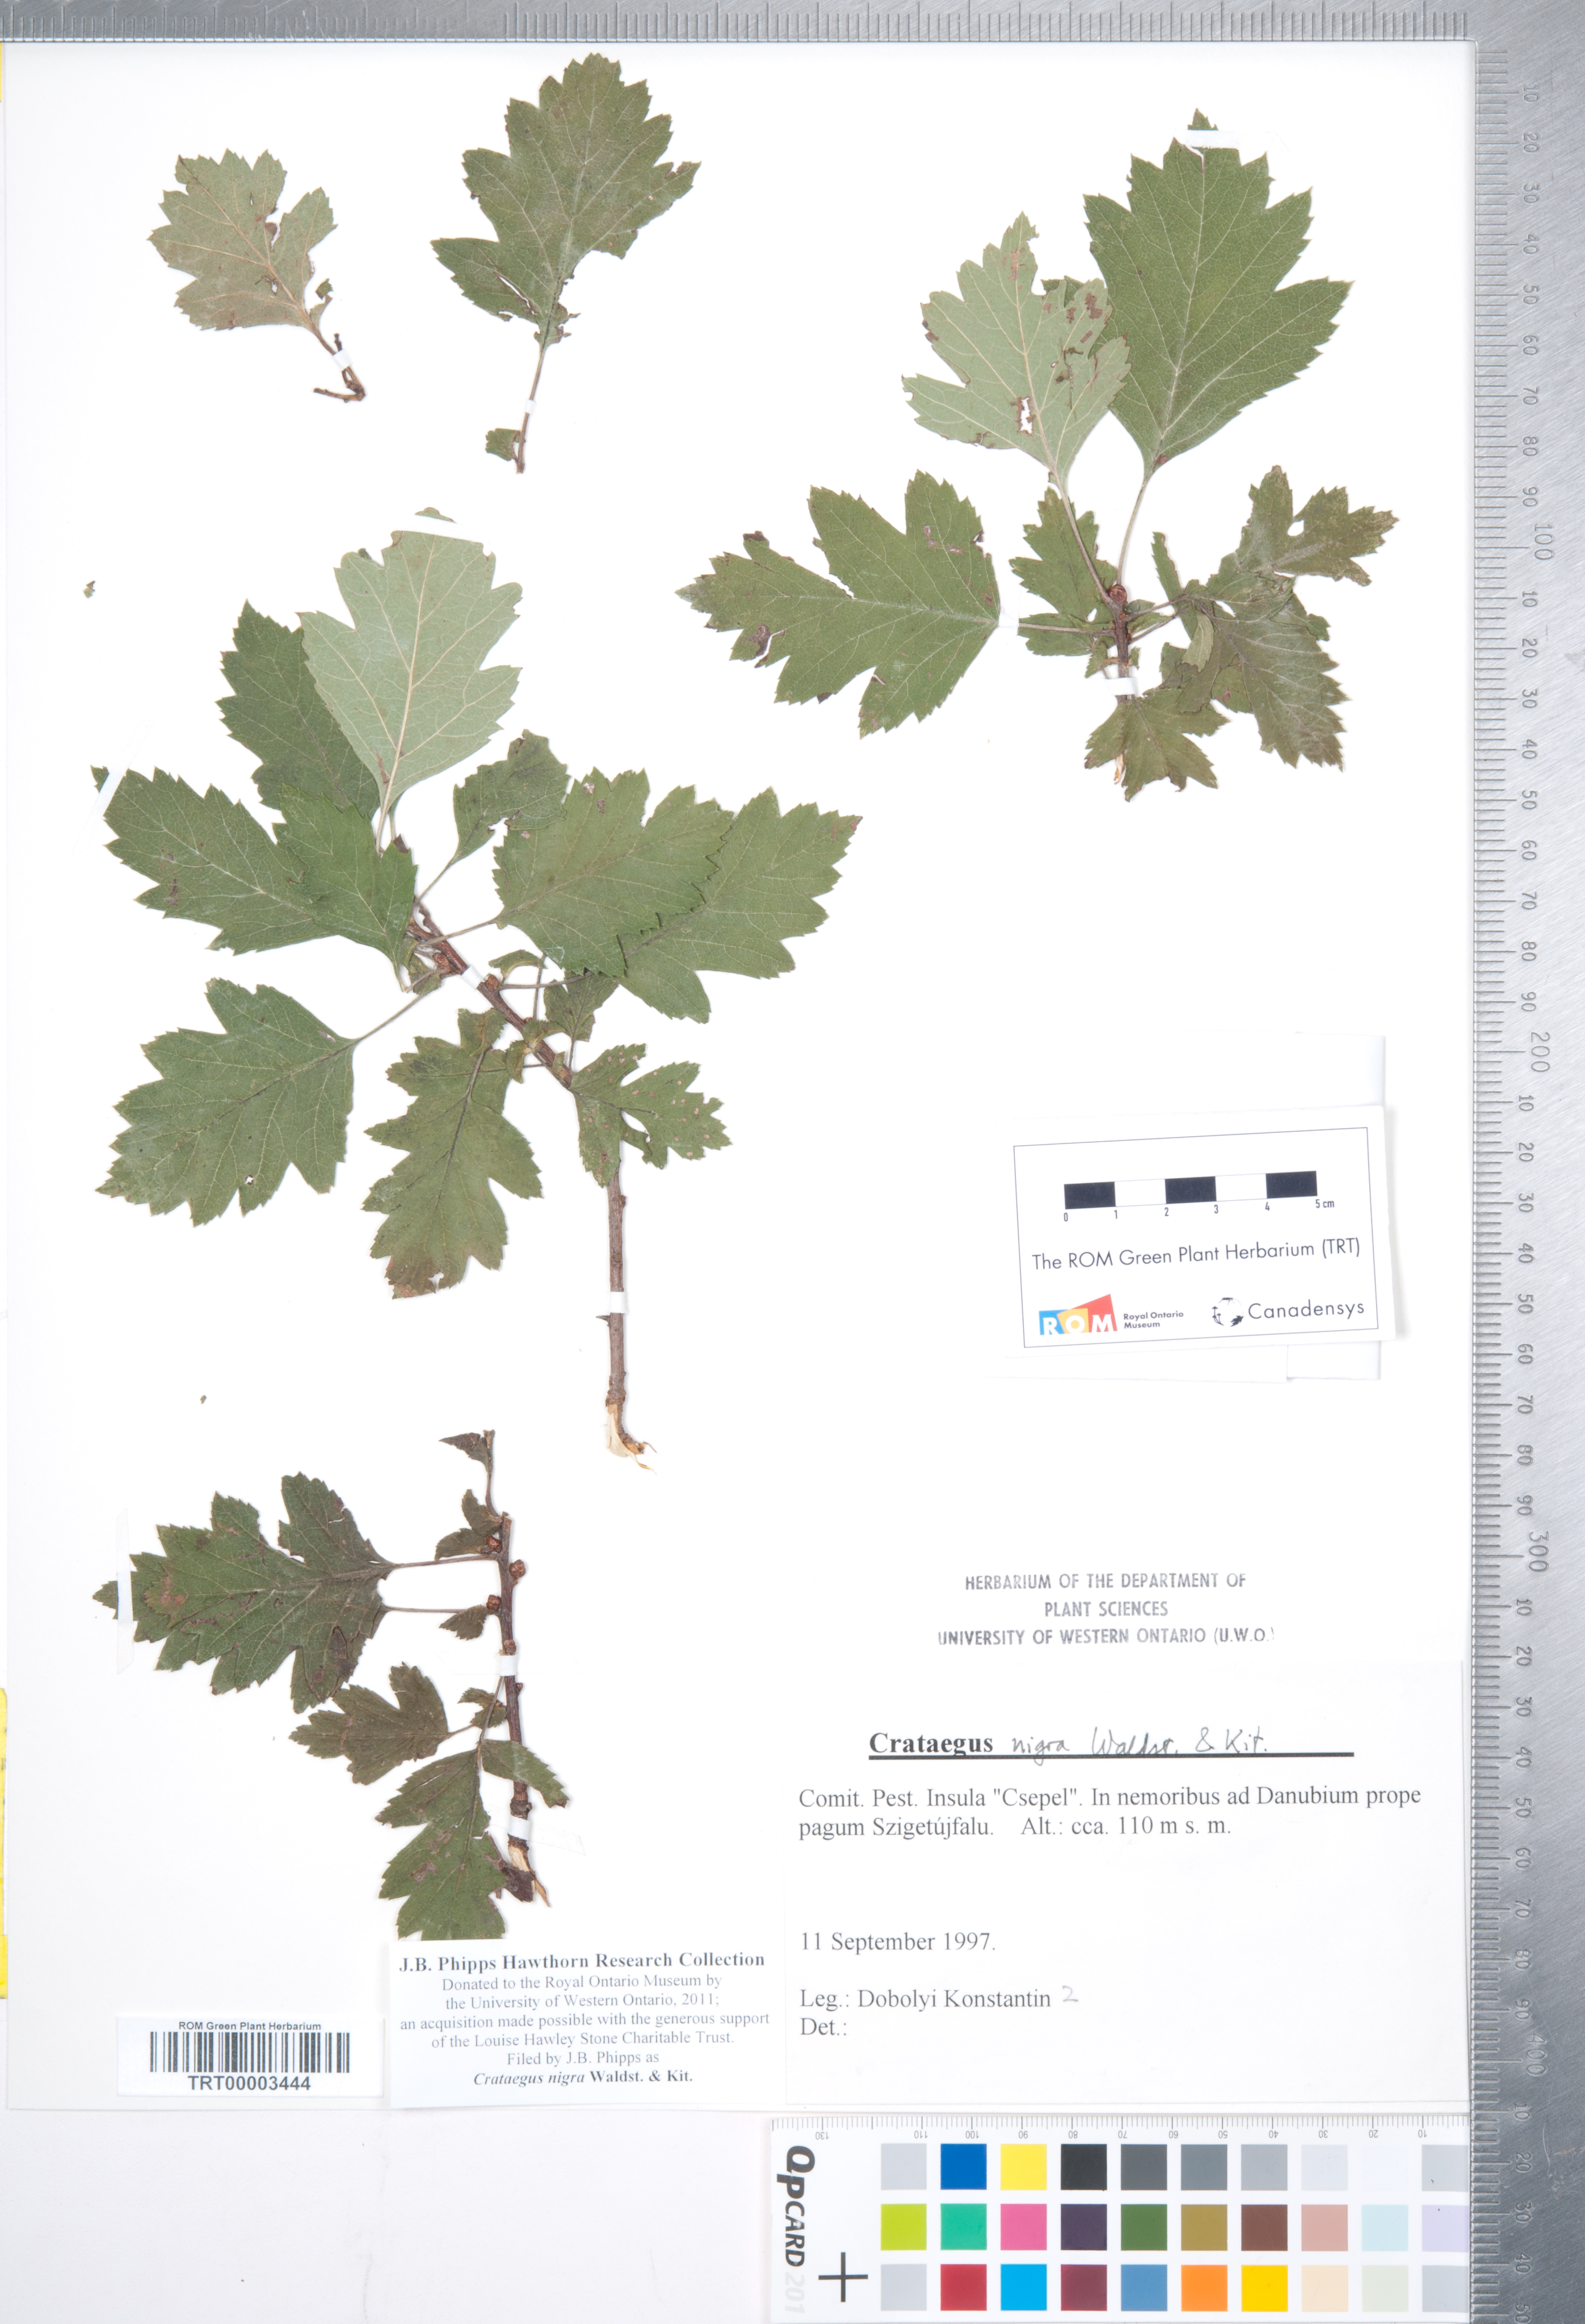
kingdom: Plantae
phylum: Tracheophyta
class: Magnoliopsida
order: Rosales
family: Rosaceae
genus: Crataegus
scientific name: Crataegus nigra
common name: Hungarian thorn
